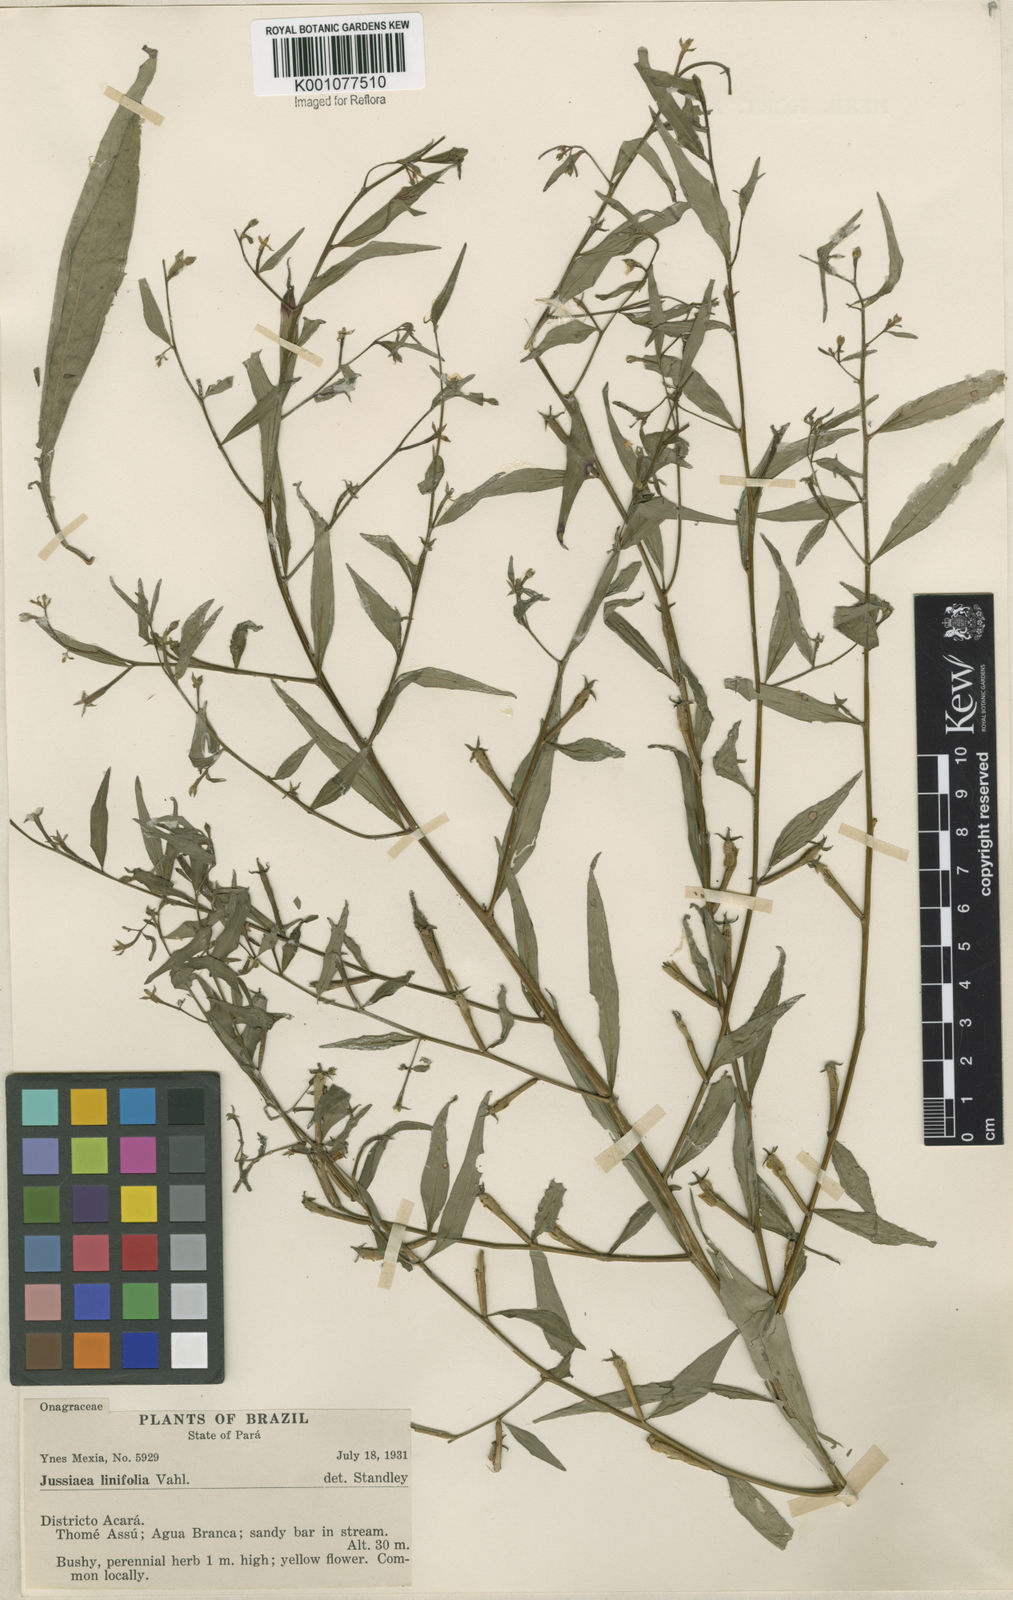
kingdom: Plantae
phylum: Tracheophyta
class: Magnoliopsida
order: Myrtales
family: Onagraceae
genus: Ludwigia
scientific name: Ludwigia hyssopifolia
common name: Linear leaf water primrose
